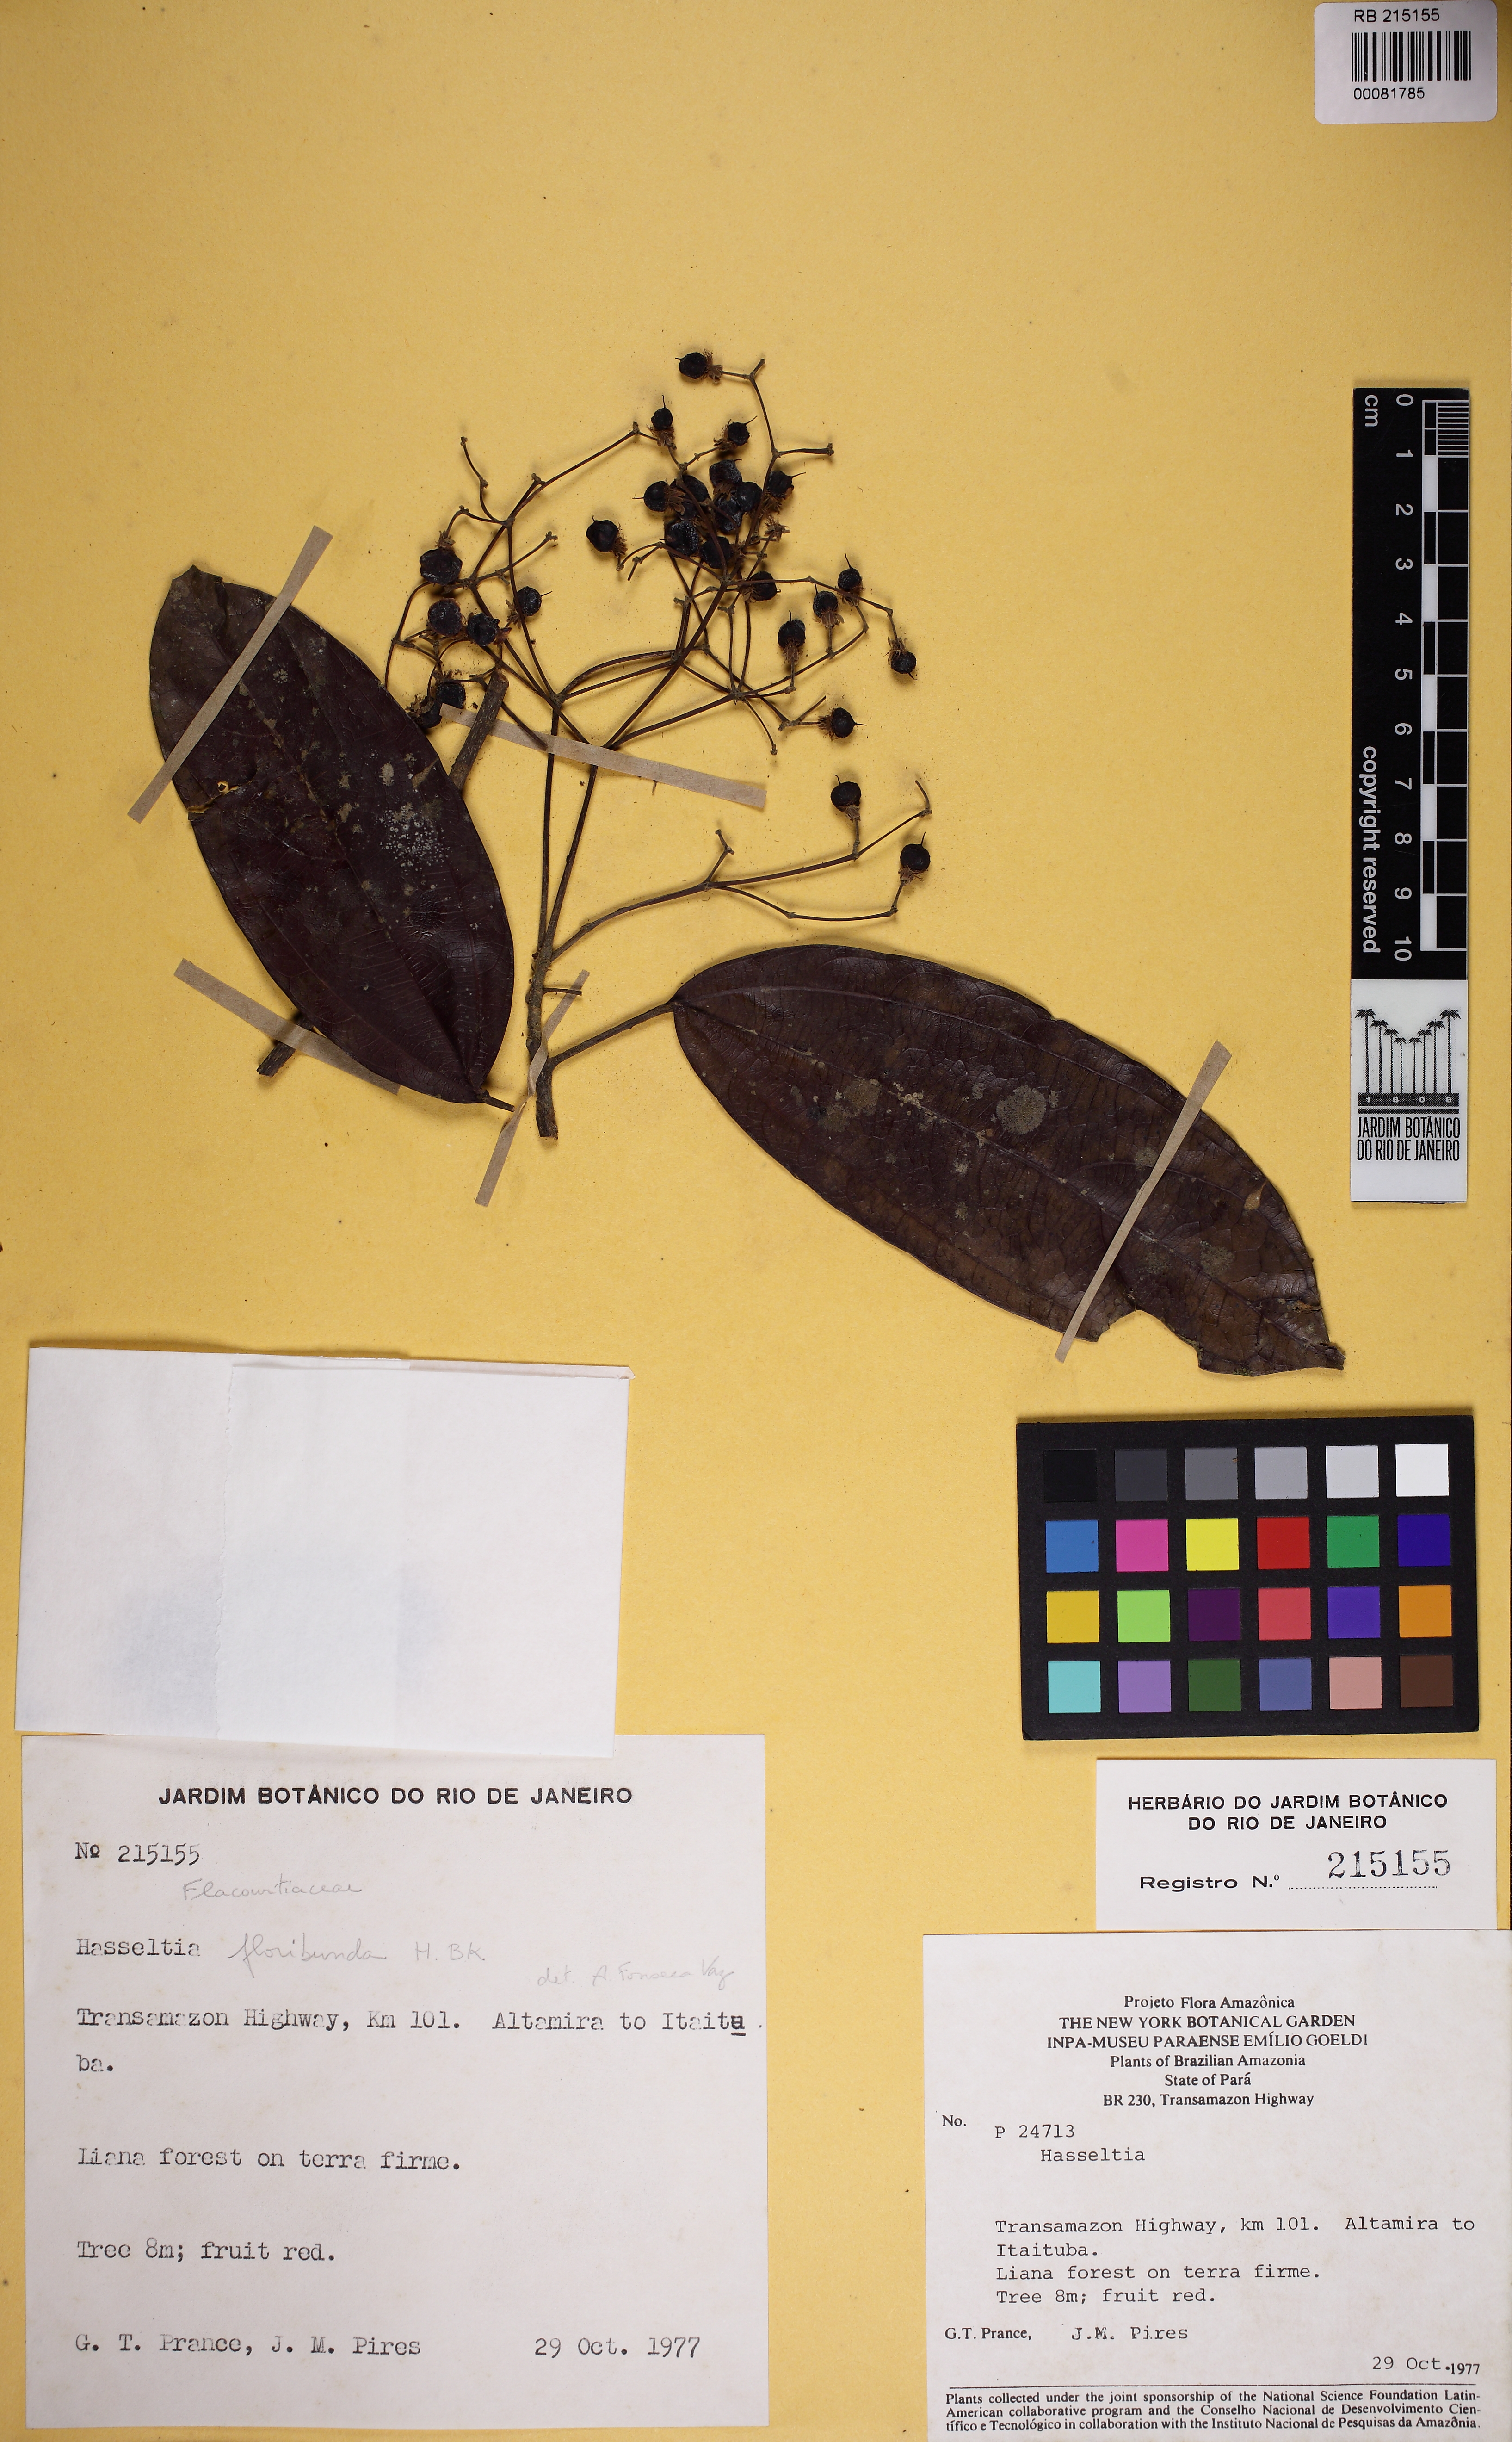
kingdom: Plantae
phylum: Tracheophyta
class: Magnoliopsida
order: Malpighiales
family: Salicaceae
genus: Hasseltia
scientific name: Hasseltia floribunda
